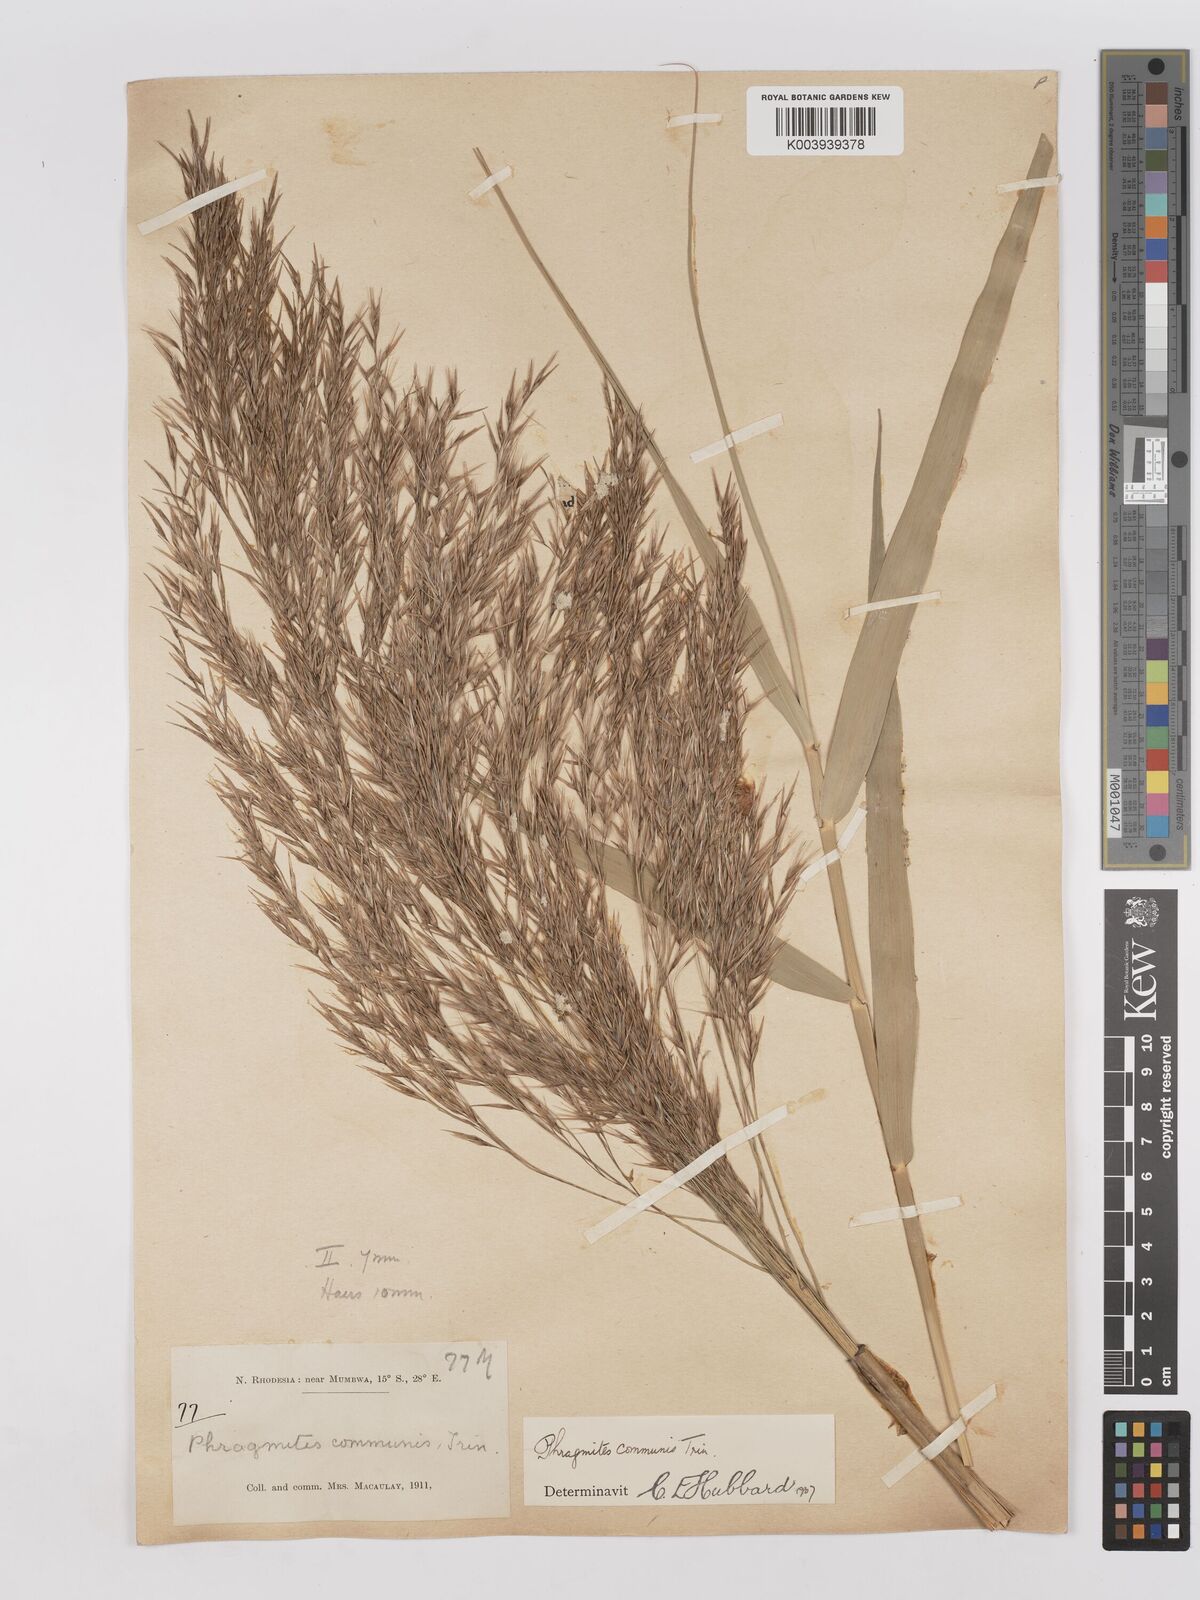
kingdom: Plantae
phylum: Tracheophyta
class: Liliopsida
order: Poales
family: Poaceae
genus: Phragmites
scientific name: Phragmites australis
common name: Common reed
